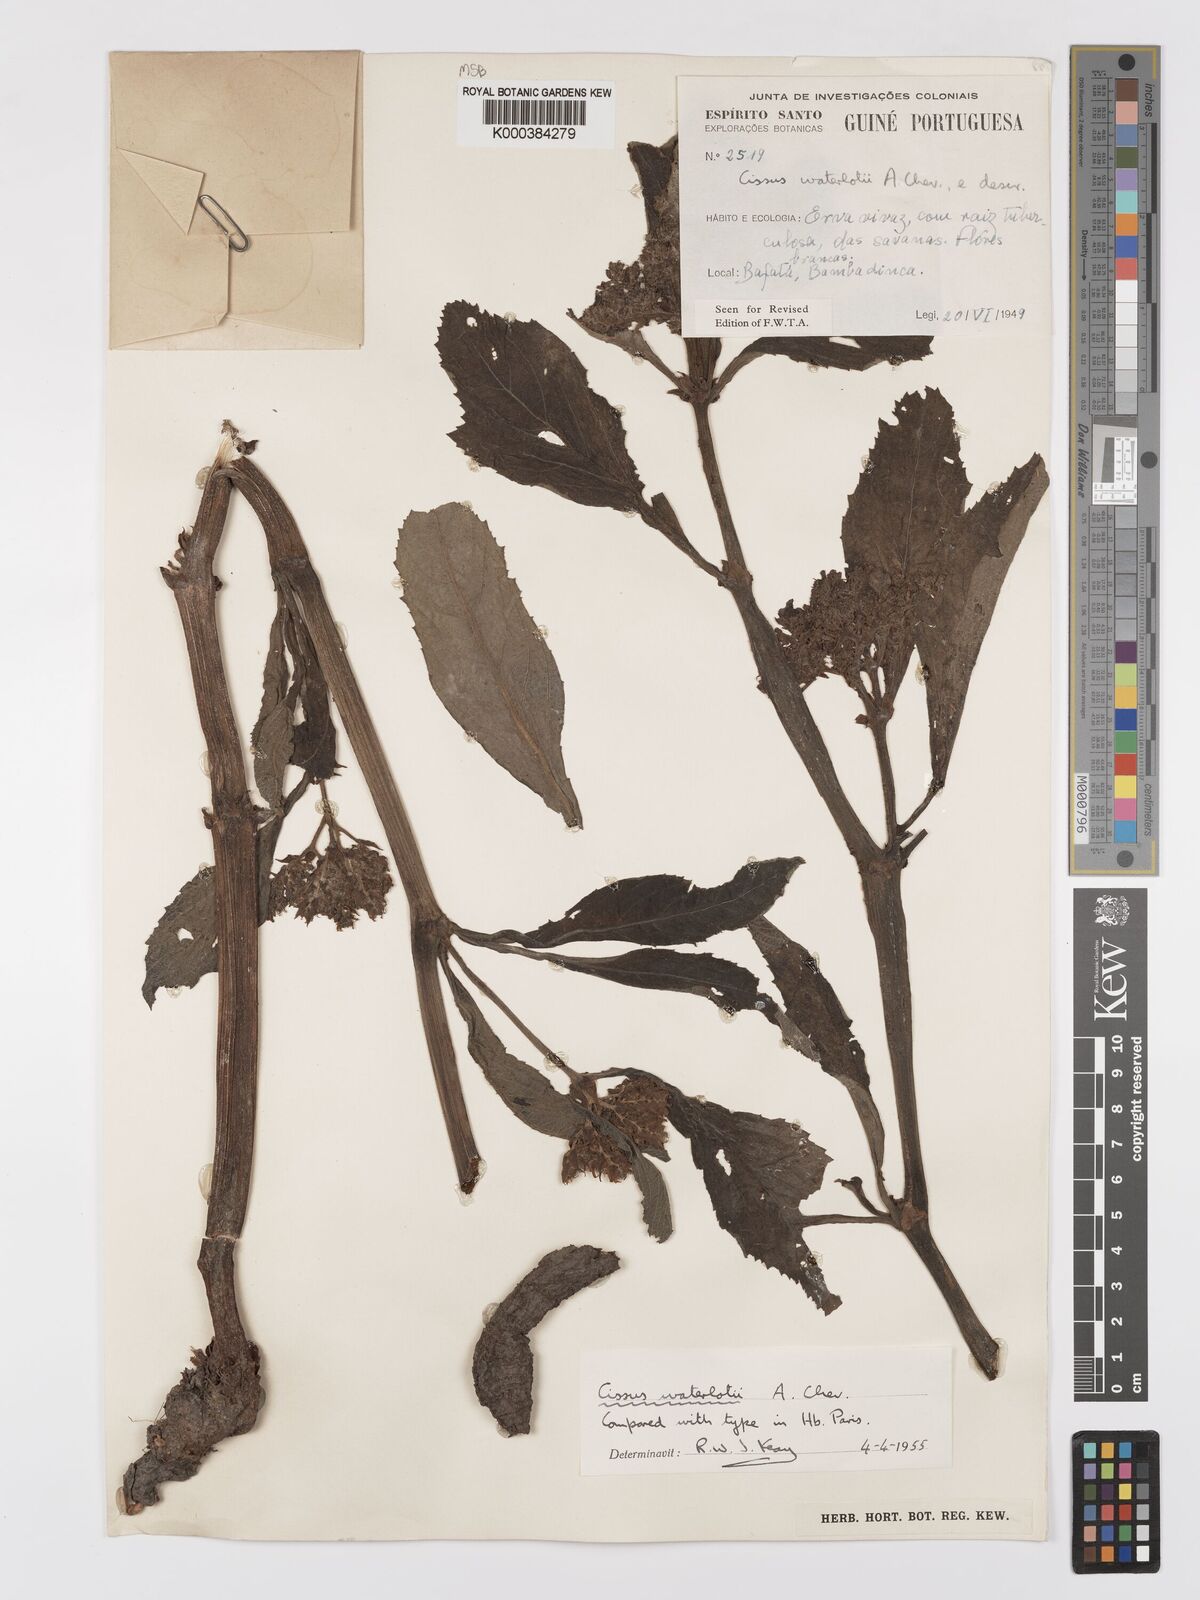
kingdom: Plantae
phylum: Tracheophyta
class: Magnoliopsida
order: Vitales
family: Vitaceae
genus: Cyphostemma
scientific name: Cyphostemma waterlotii
